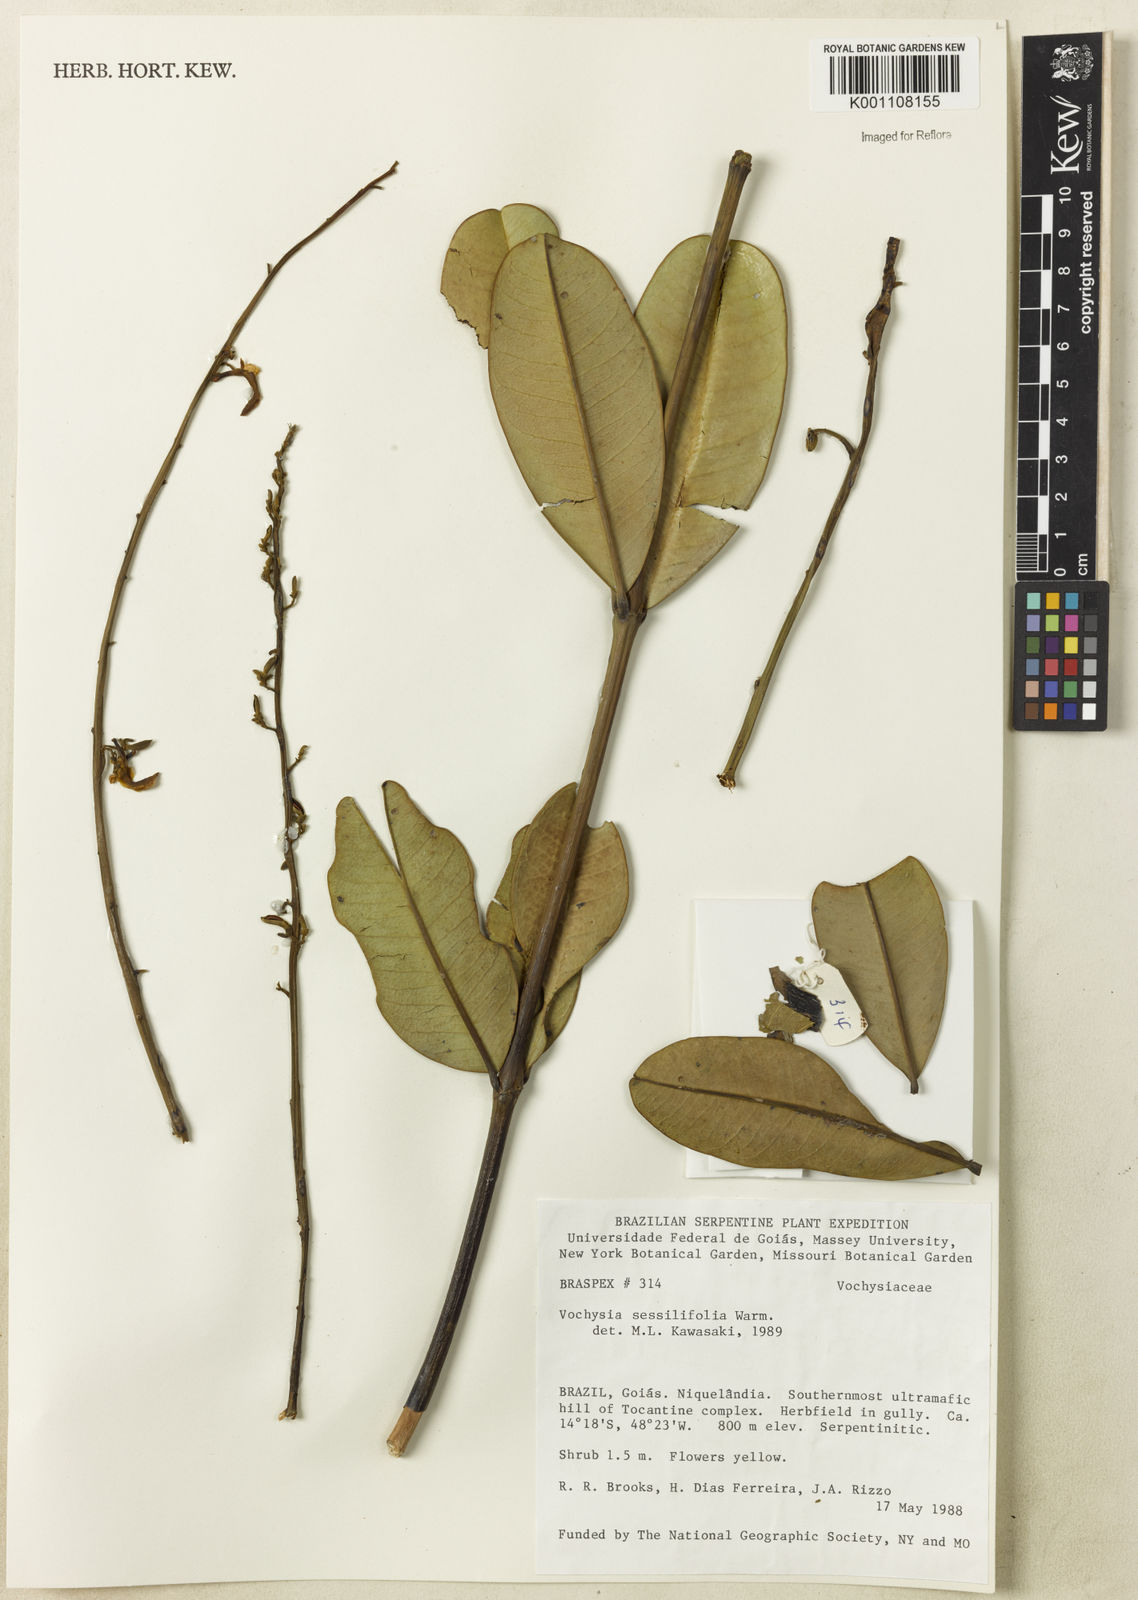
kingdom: Plantae
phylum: Tracheophyta
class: Magnoliopsida
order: Myrtales
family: Vochysiaceae
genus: Vochysia
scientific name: Vochysia sessilifolia
